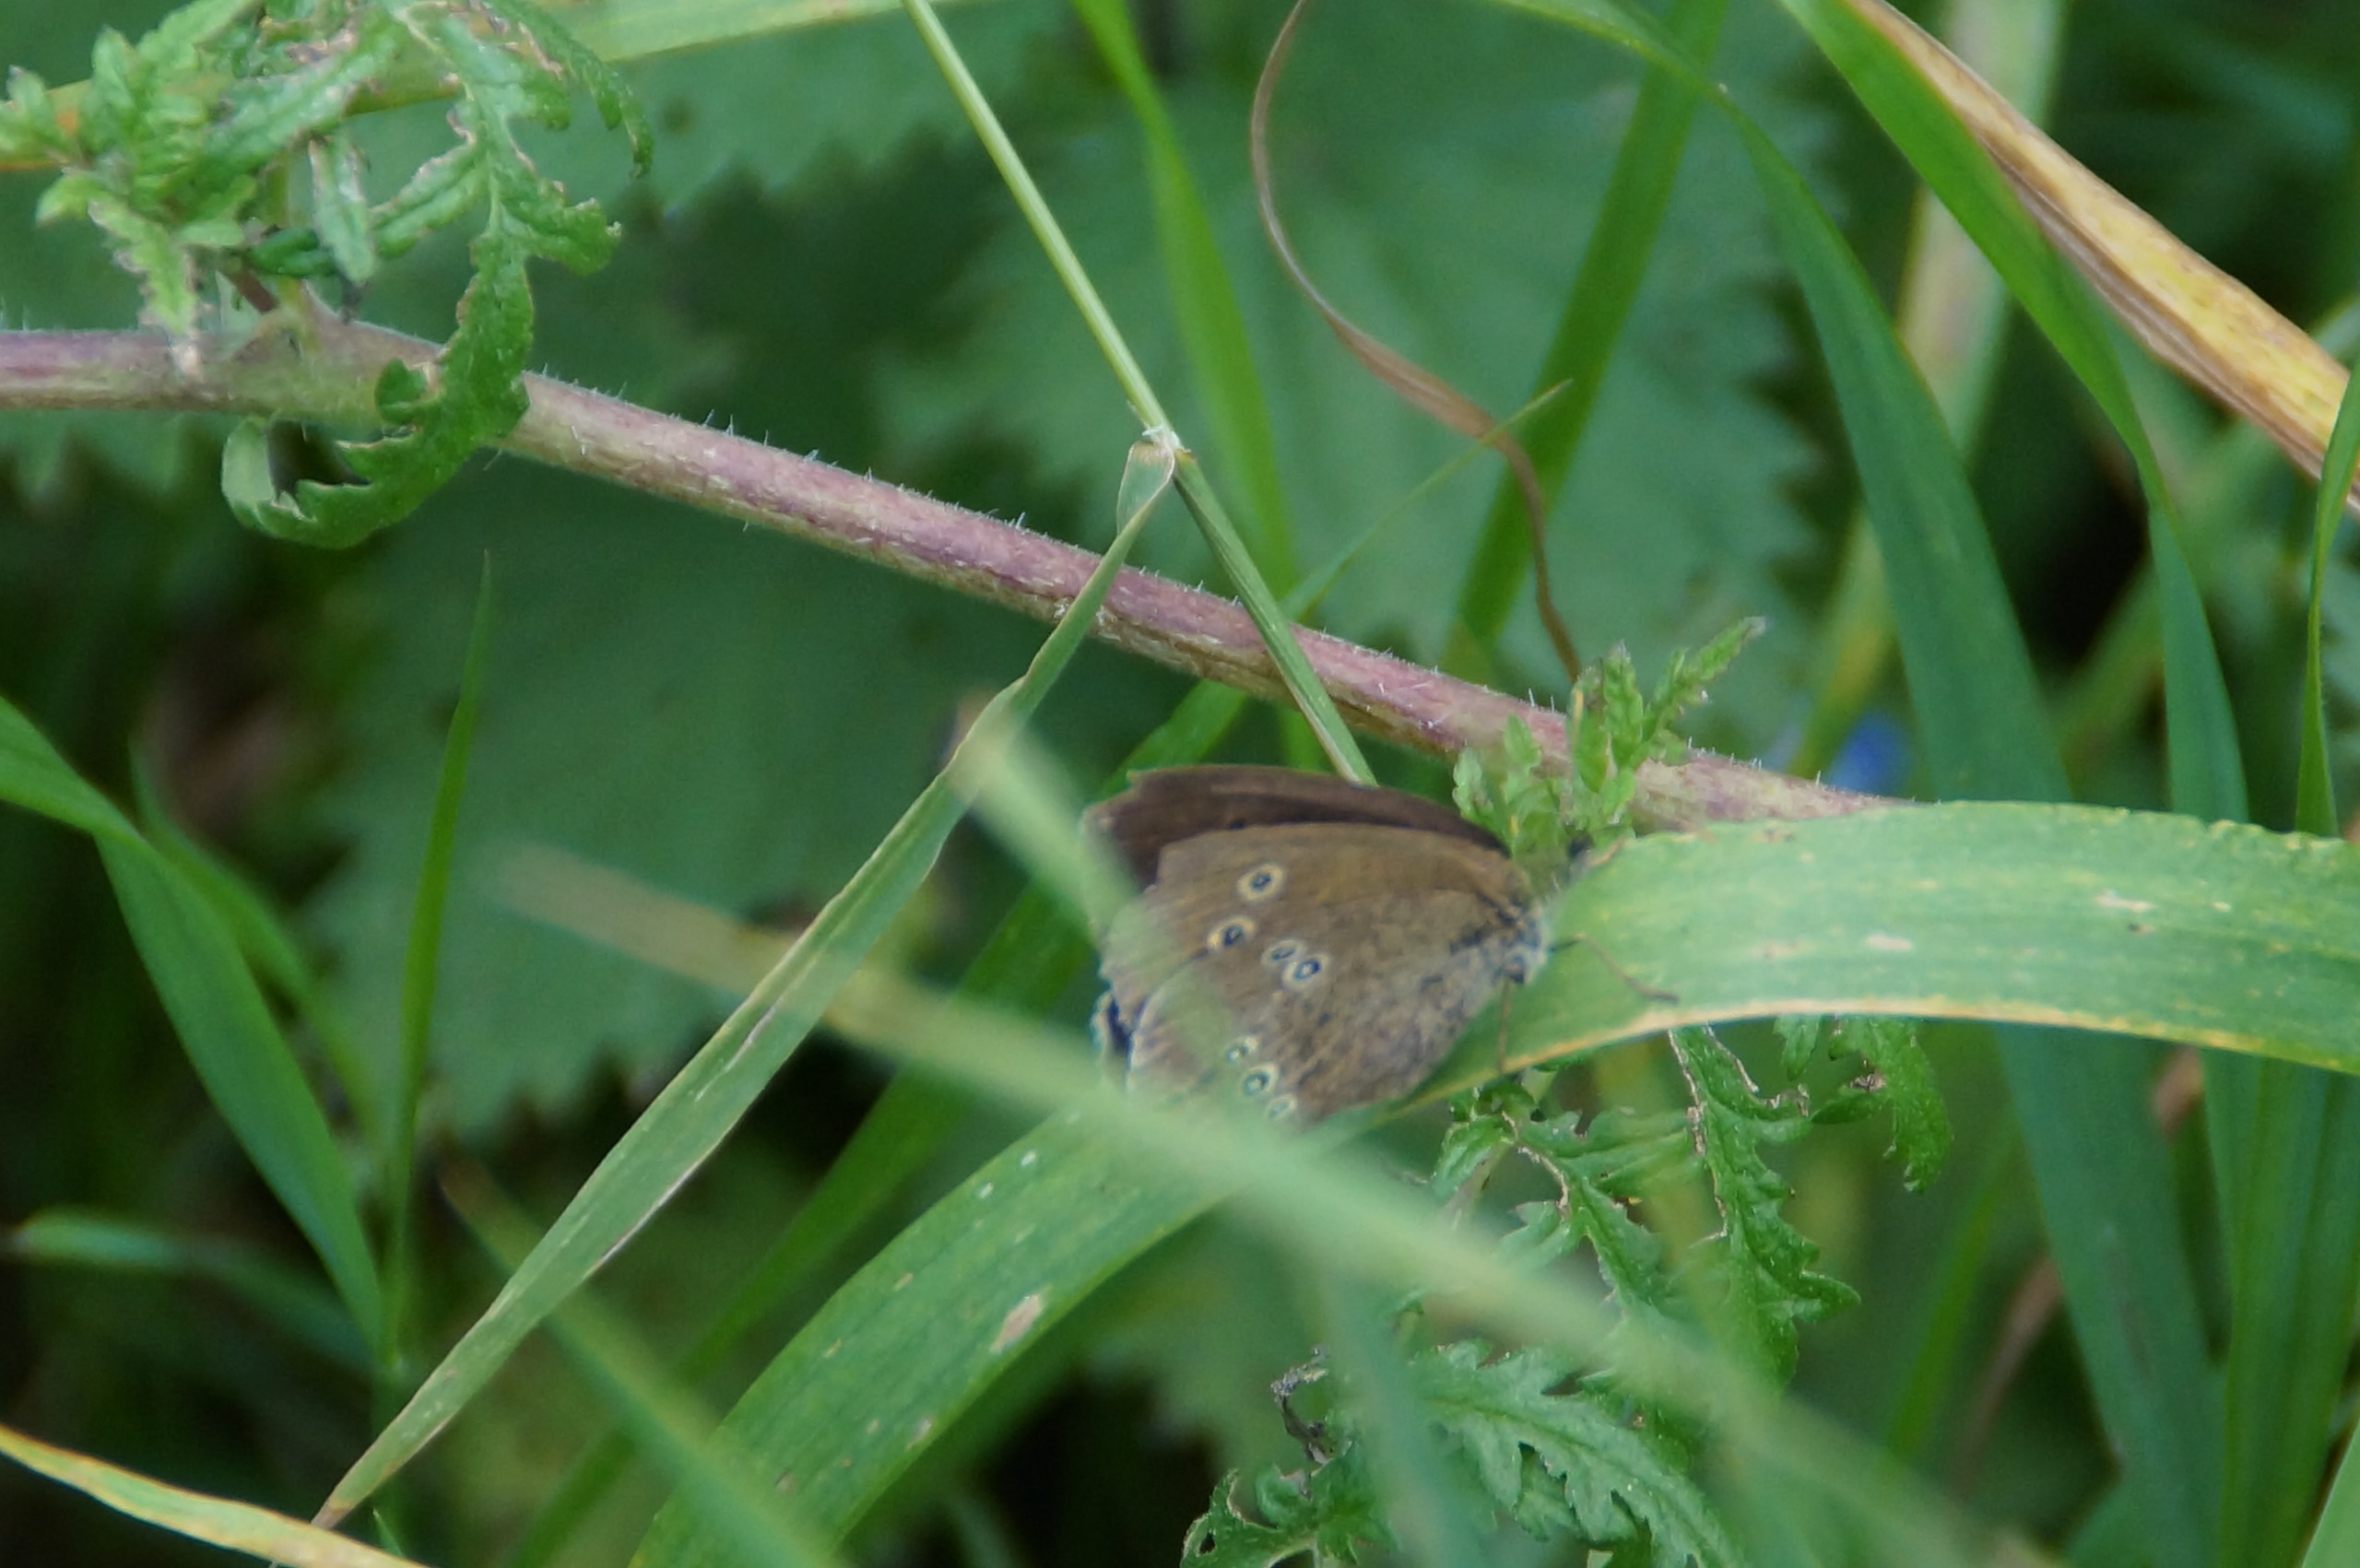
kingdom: Animalia
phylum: Arthropoda
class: Insecta
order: Lepidoptera
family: Nymphalidae
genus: Aphantopus
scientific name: Aphantopus hyperantus
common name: Engrandøje
